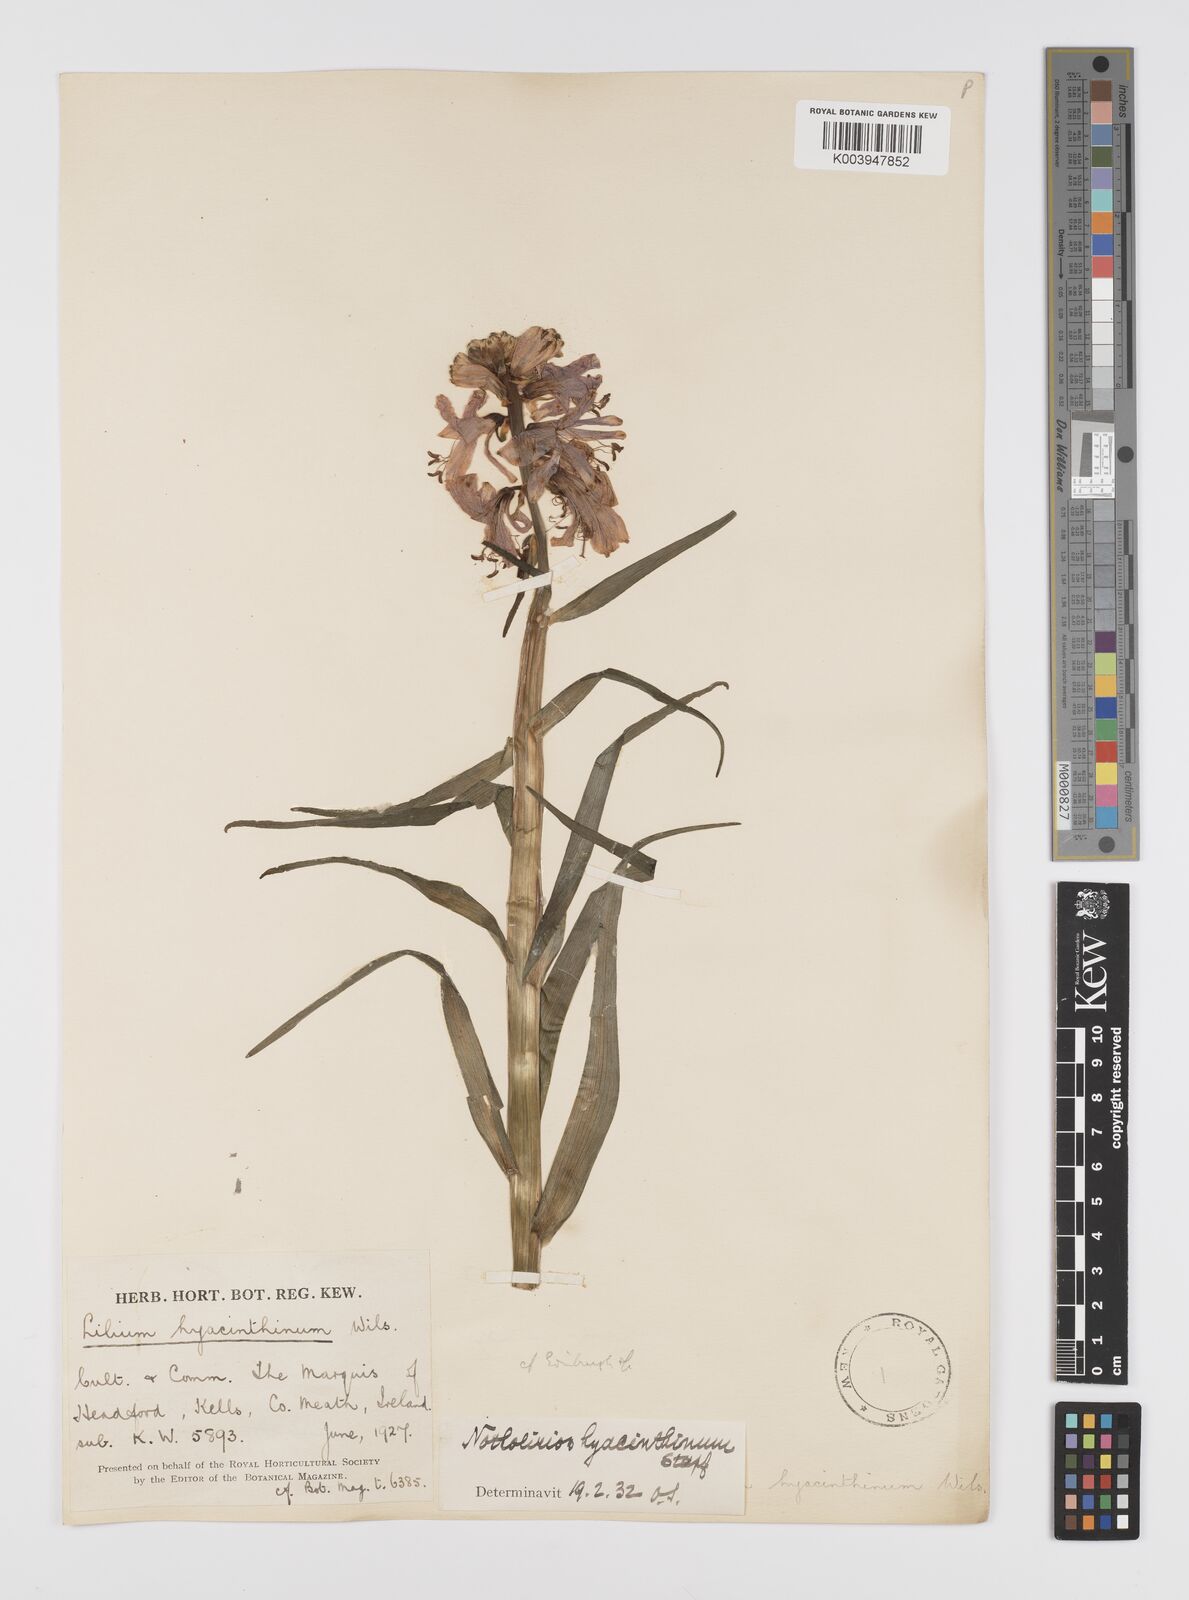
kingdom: Plantae
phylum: Tracheophyta
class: Liliopsida
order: Liliales
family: Liliaceae
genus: Notholirion
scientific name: Notholirion bulbuliferum
